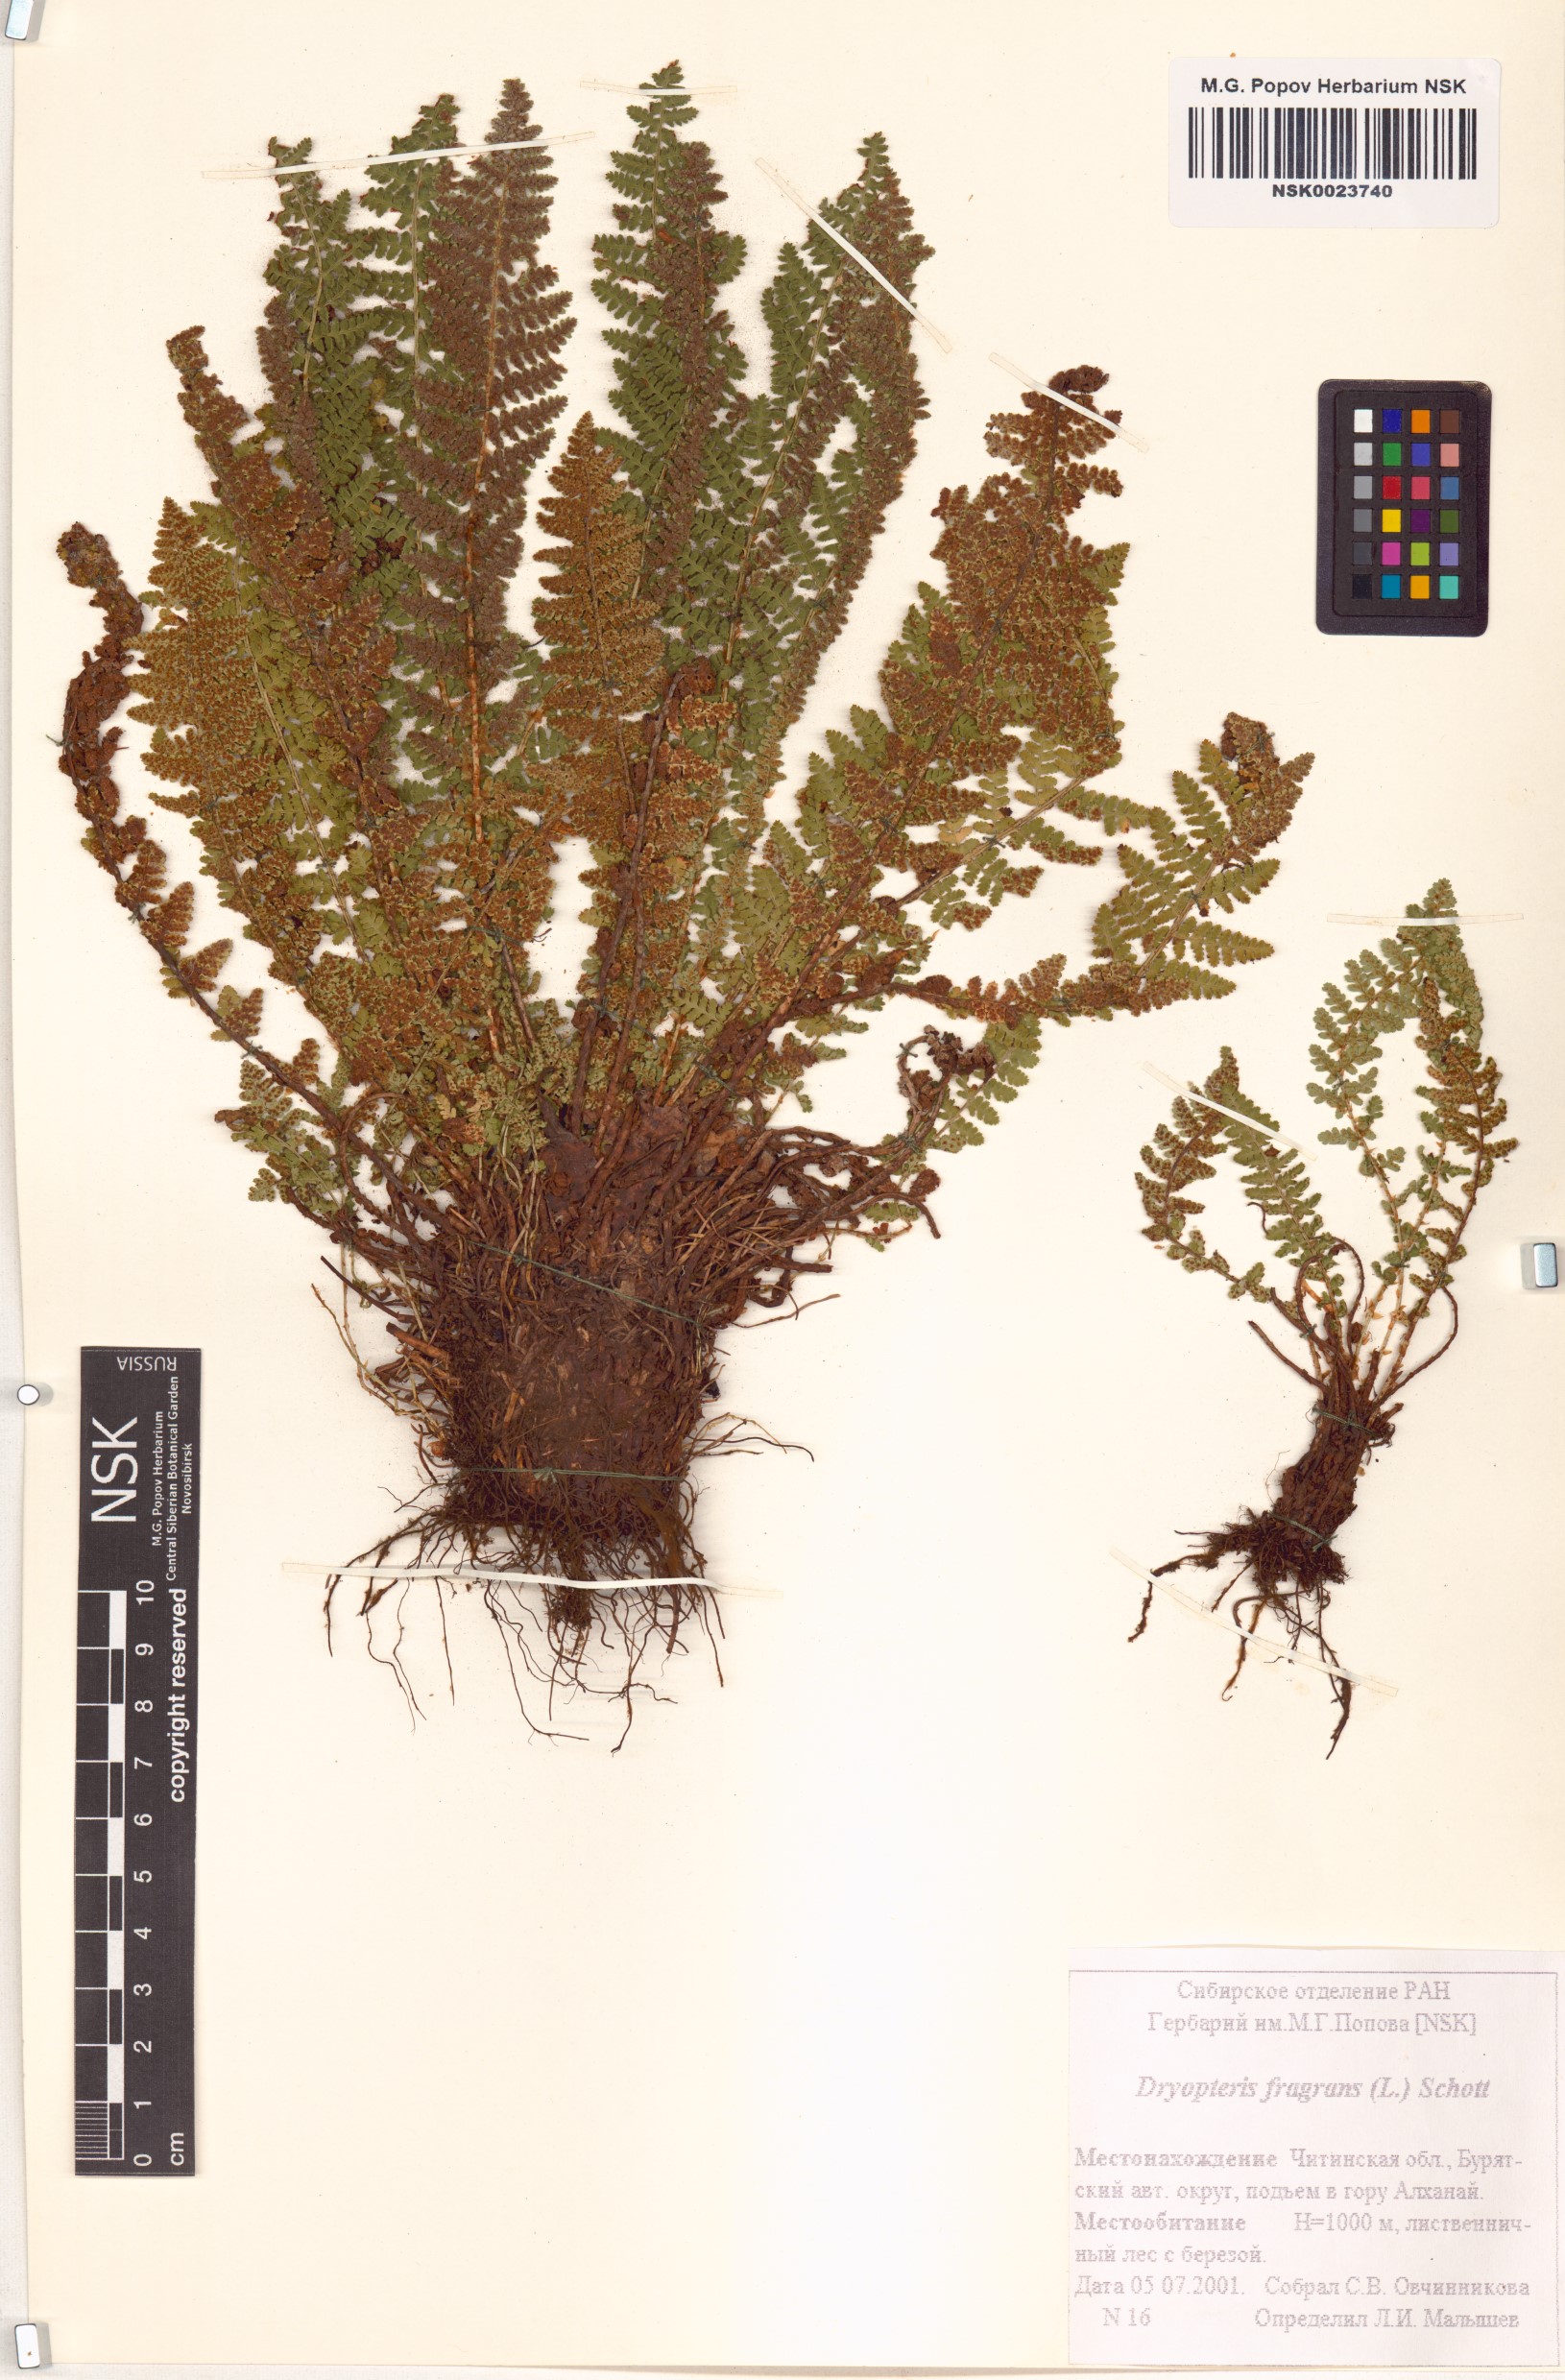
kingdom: Plantae
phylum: Tracheophyta
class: Polypodiopsida
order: Polypodiales
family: Dryopteridaceae
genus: Dryopteris
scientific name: Dryopteris fragrans
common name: Fragrant wood fern
